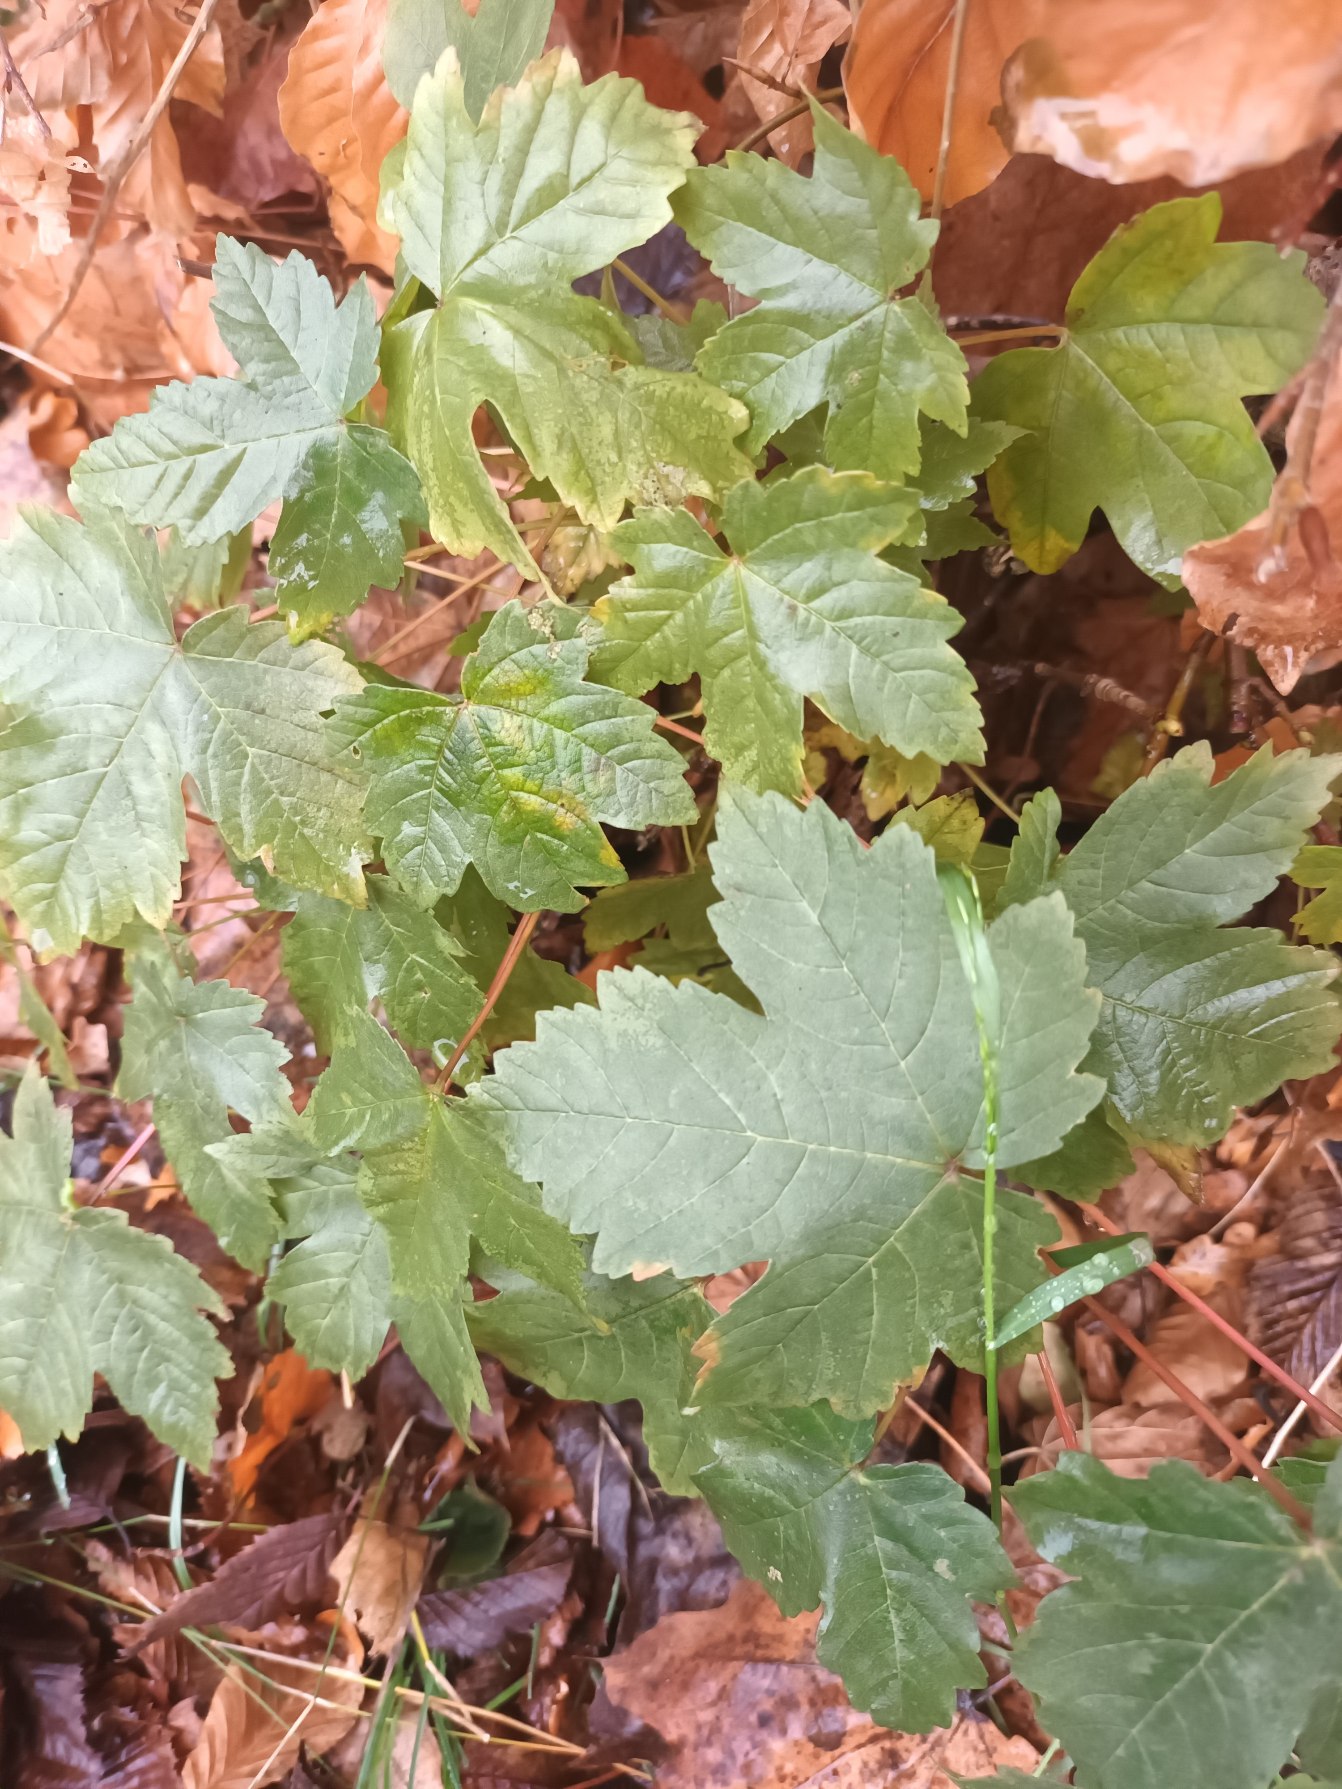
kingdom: Plantae
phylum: Tracheophyta
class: Magnoliopsida
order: Sapindales
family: Sapindaceae
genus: Acer
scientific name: Acer pseudoplatanus
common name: Ahorn
